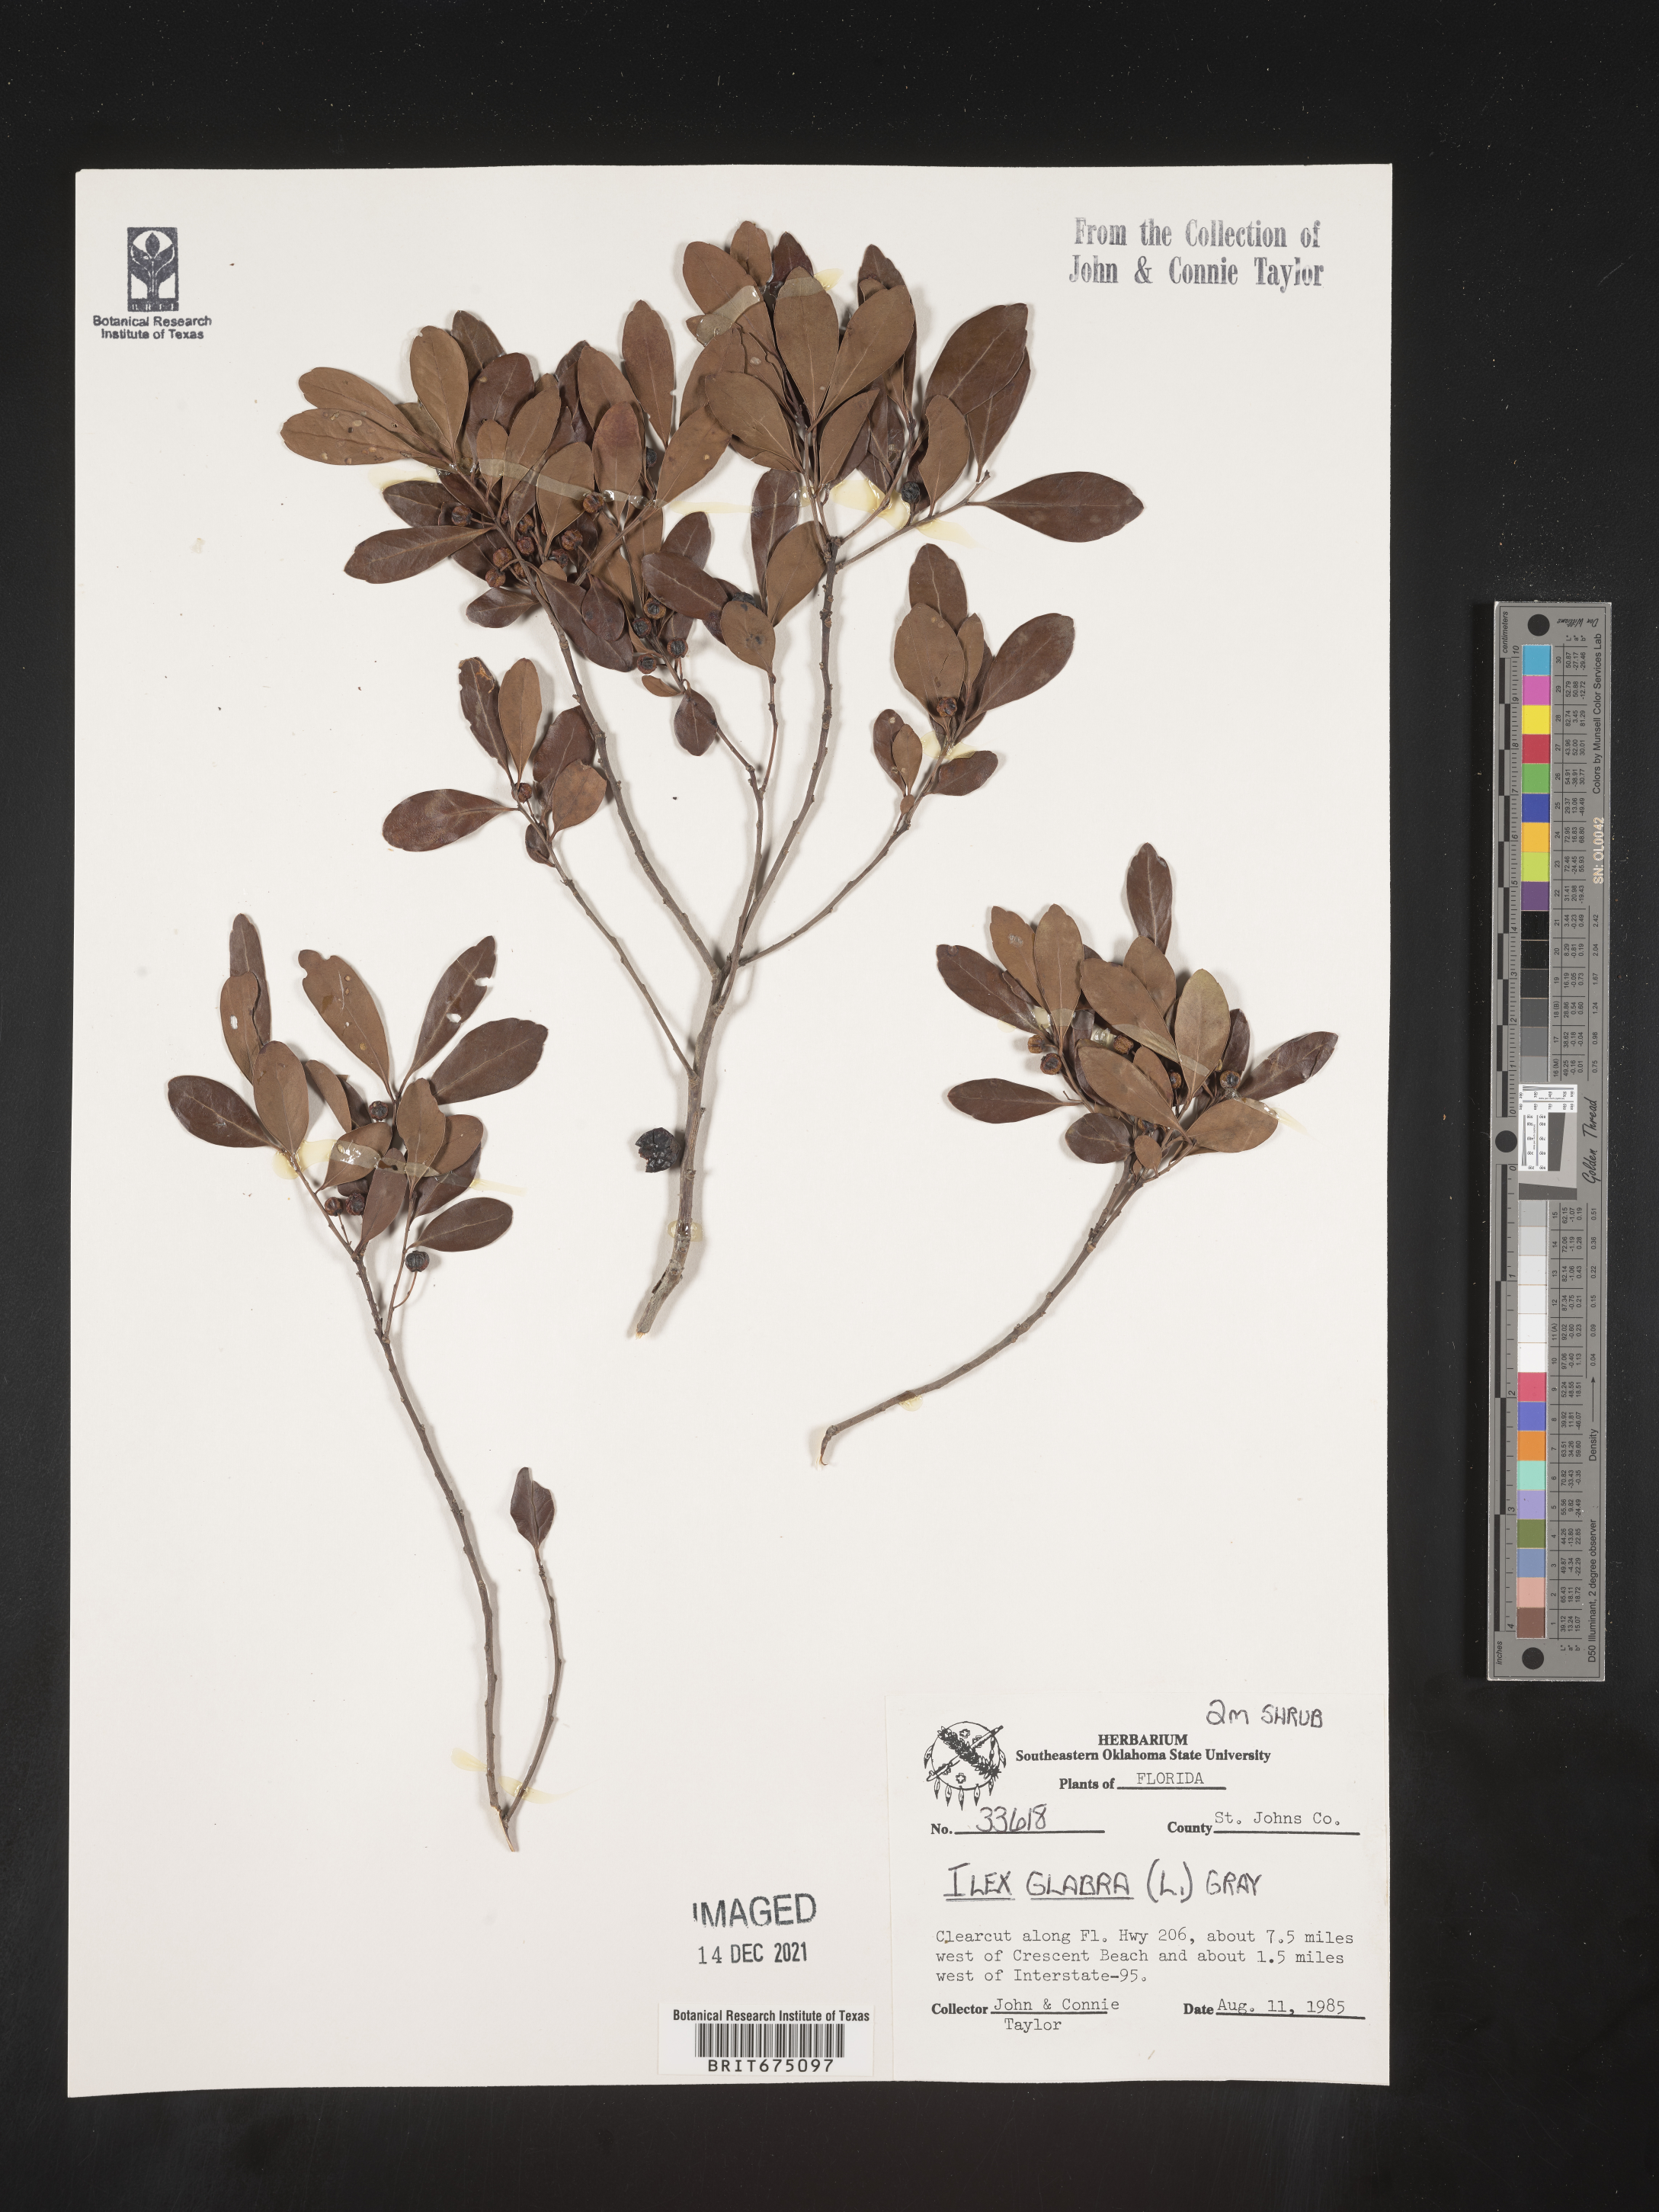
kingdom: Plantae
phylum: Tracheophyta
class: Magnoliopsida
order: Aquifoliales
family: Aquifoliaceae
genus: Ilex
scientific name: Ilex glabra
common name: Bitter gallberry
